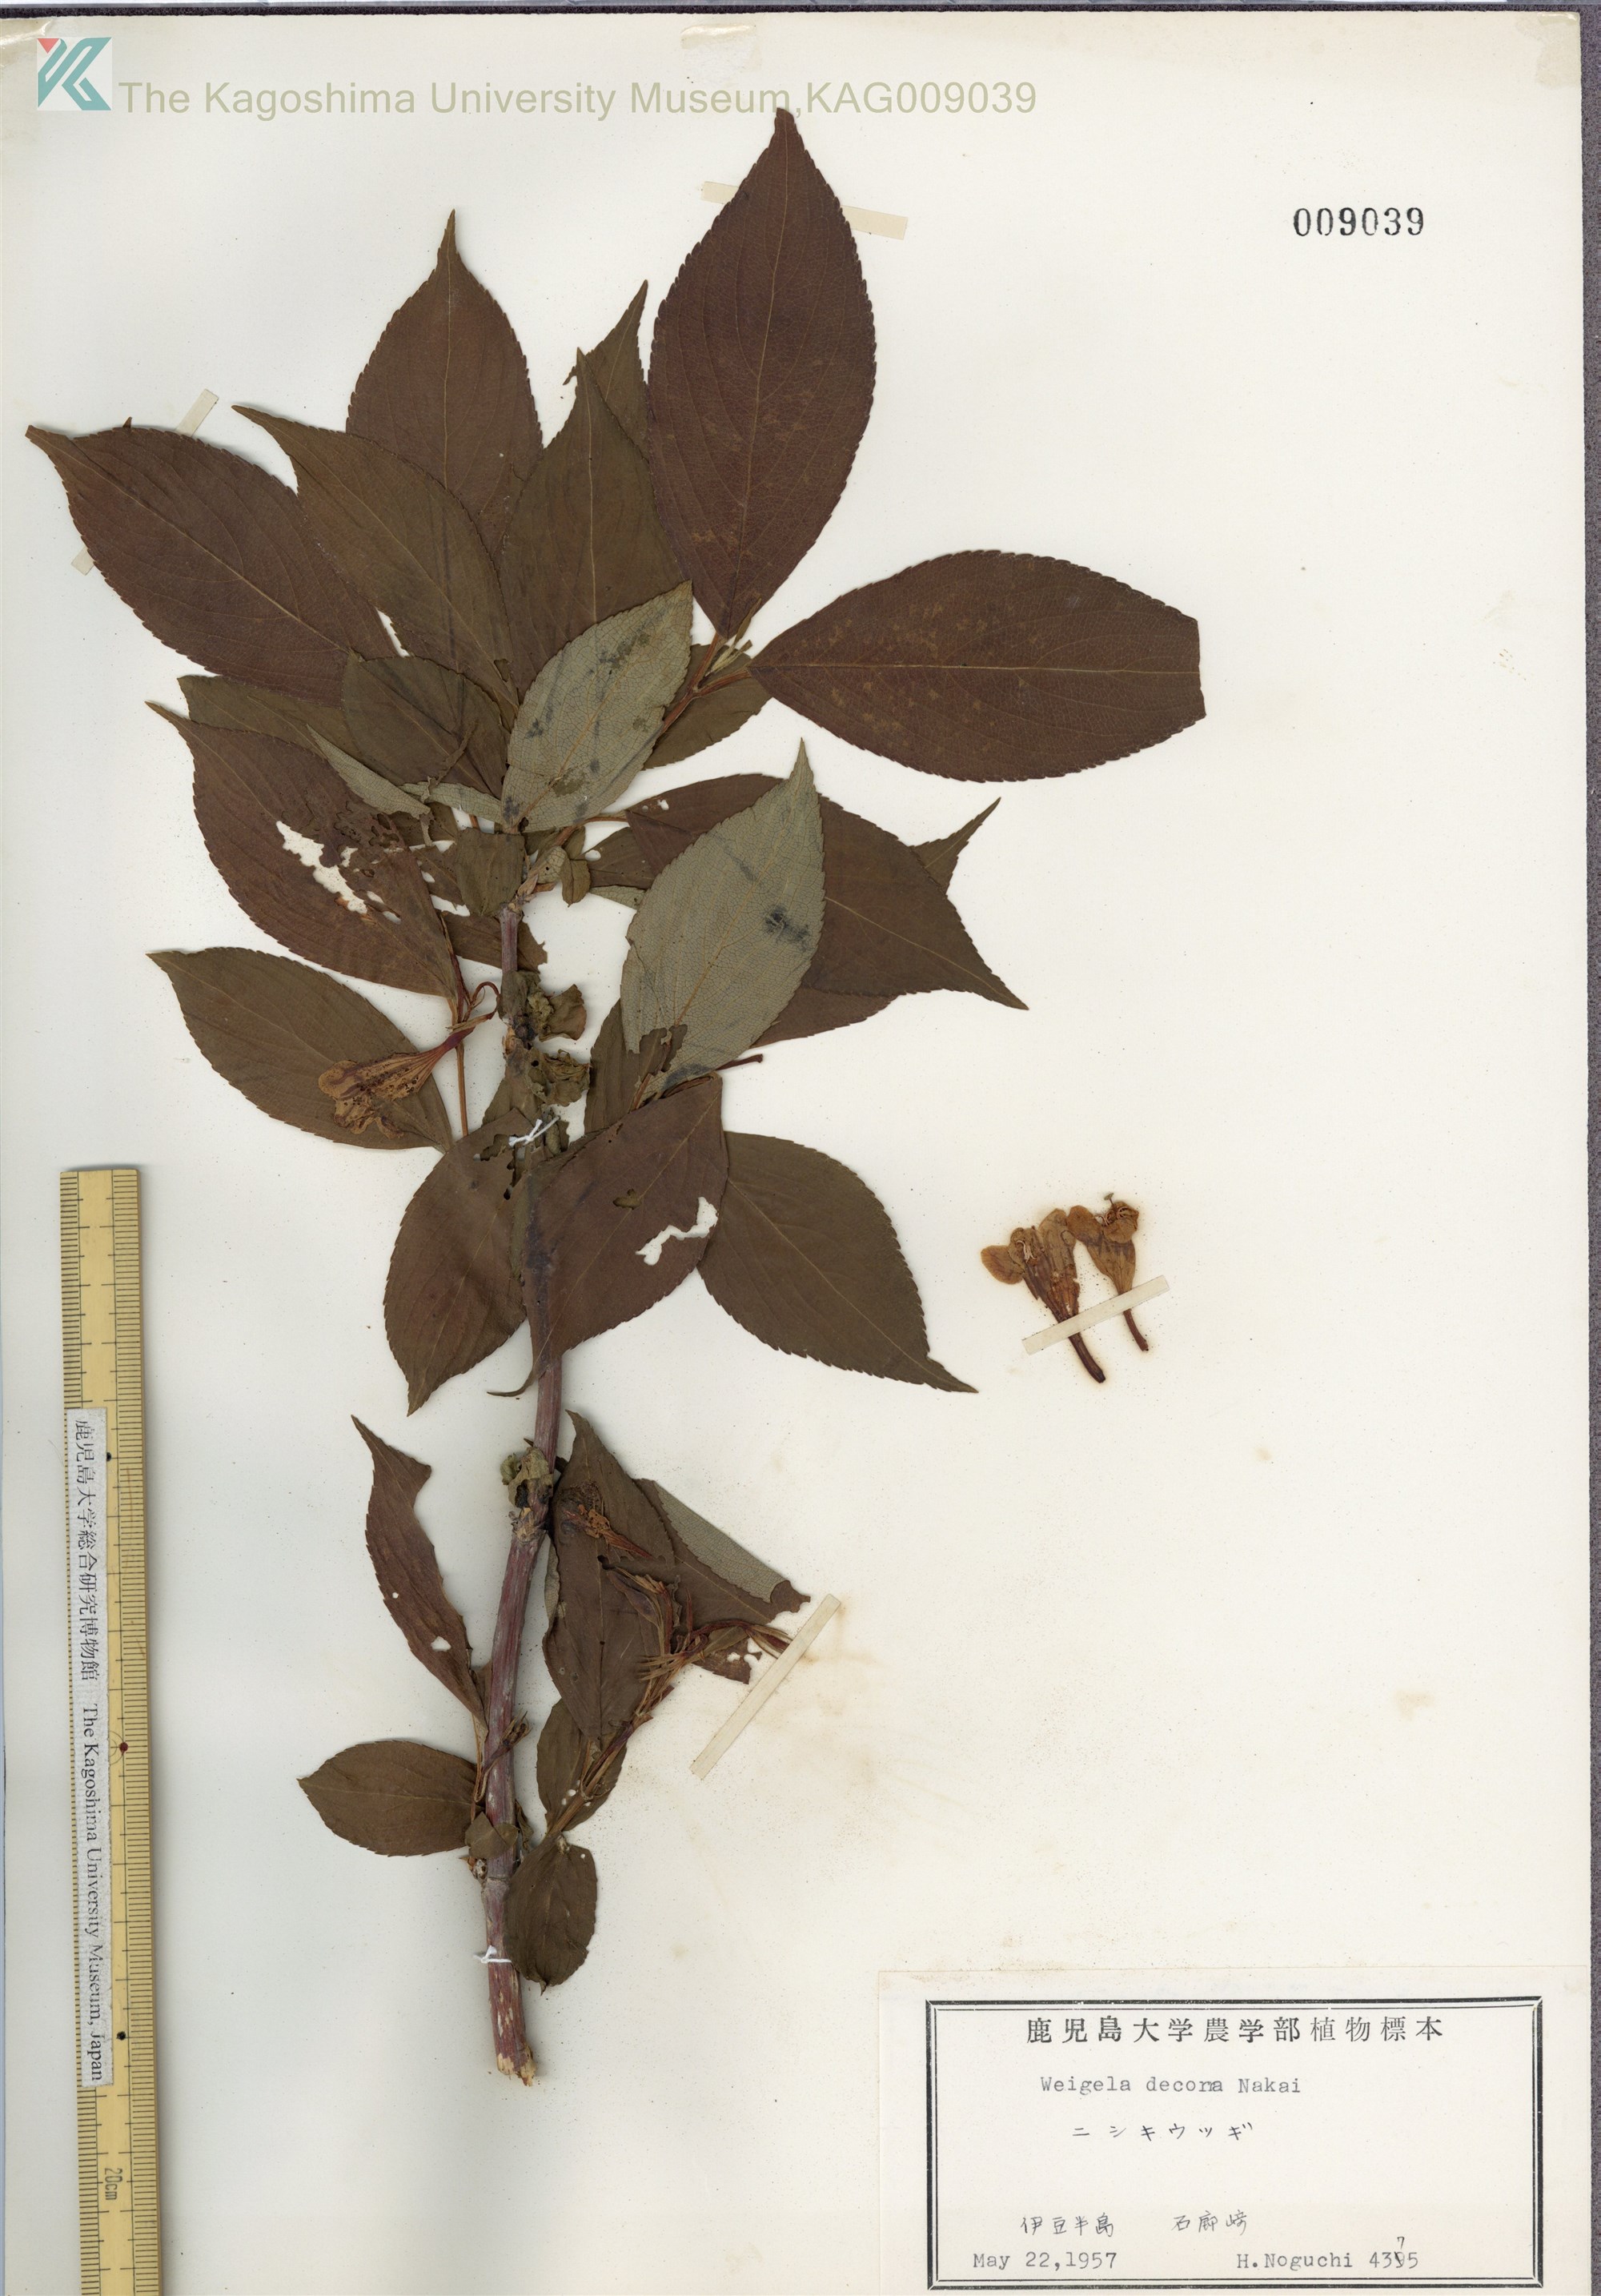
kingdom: Plantae
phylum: Tracheophyta
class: Magnoliopsida
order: Dipsacales
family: Caprifoliaceae
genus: Weigela
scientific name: Weigela decora
